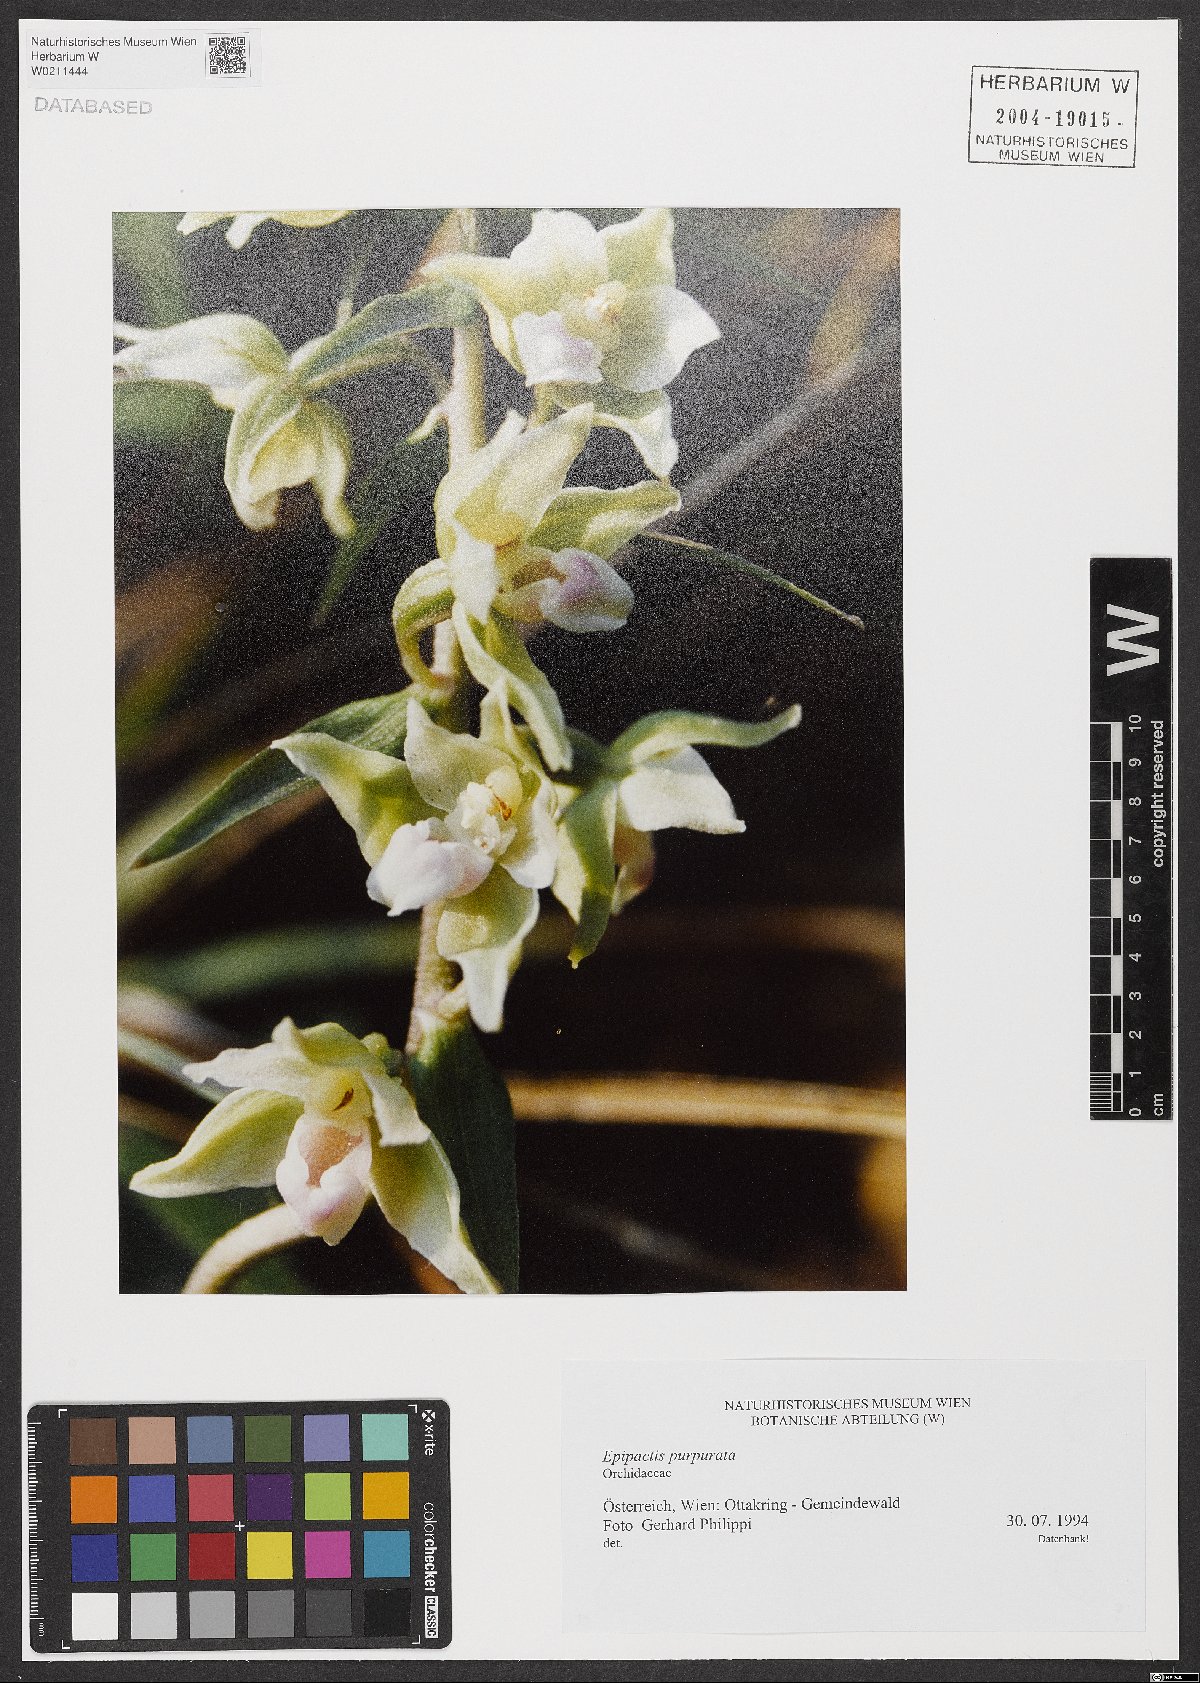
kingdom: Plantae
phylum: Tracheophyta
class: Liliopsida
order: Asparagales
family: Orchidaceae
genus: Epipactis
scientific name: Epipactis purpurata
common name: Violet helleborine
